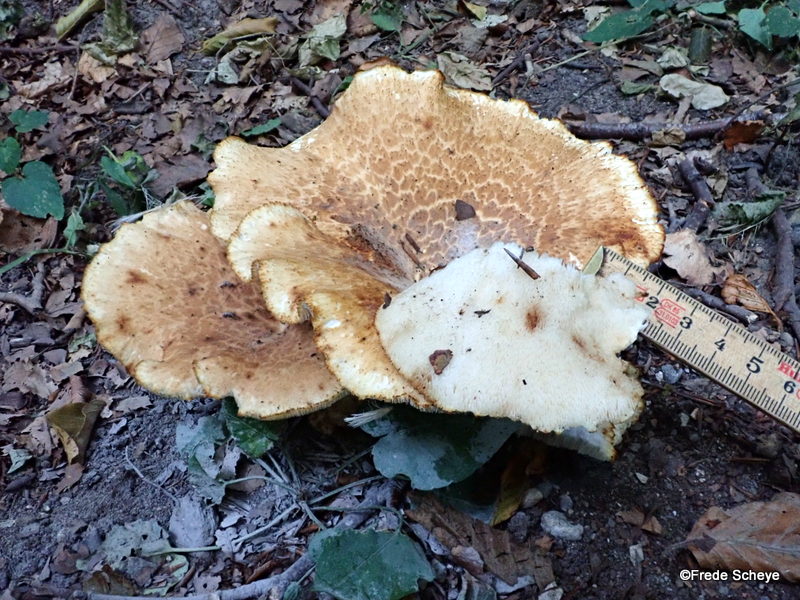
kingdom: Fungi
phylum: Basidiomycota
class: Agaricomycetes
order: Polyporales
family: Polyporaceae
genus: Cerioporus
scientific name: Cerioporus squamosus
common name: skællet stilkporesvamp
